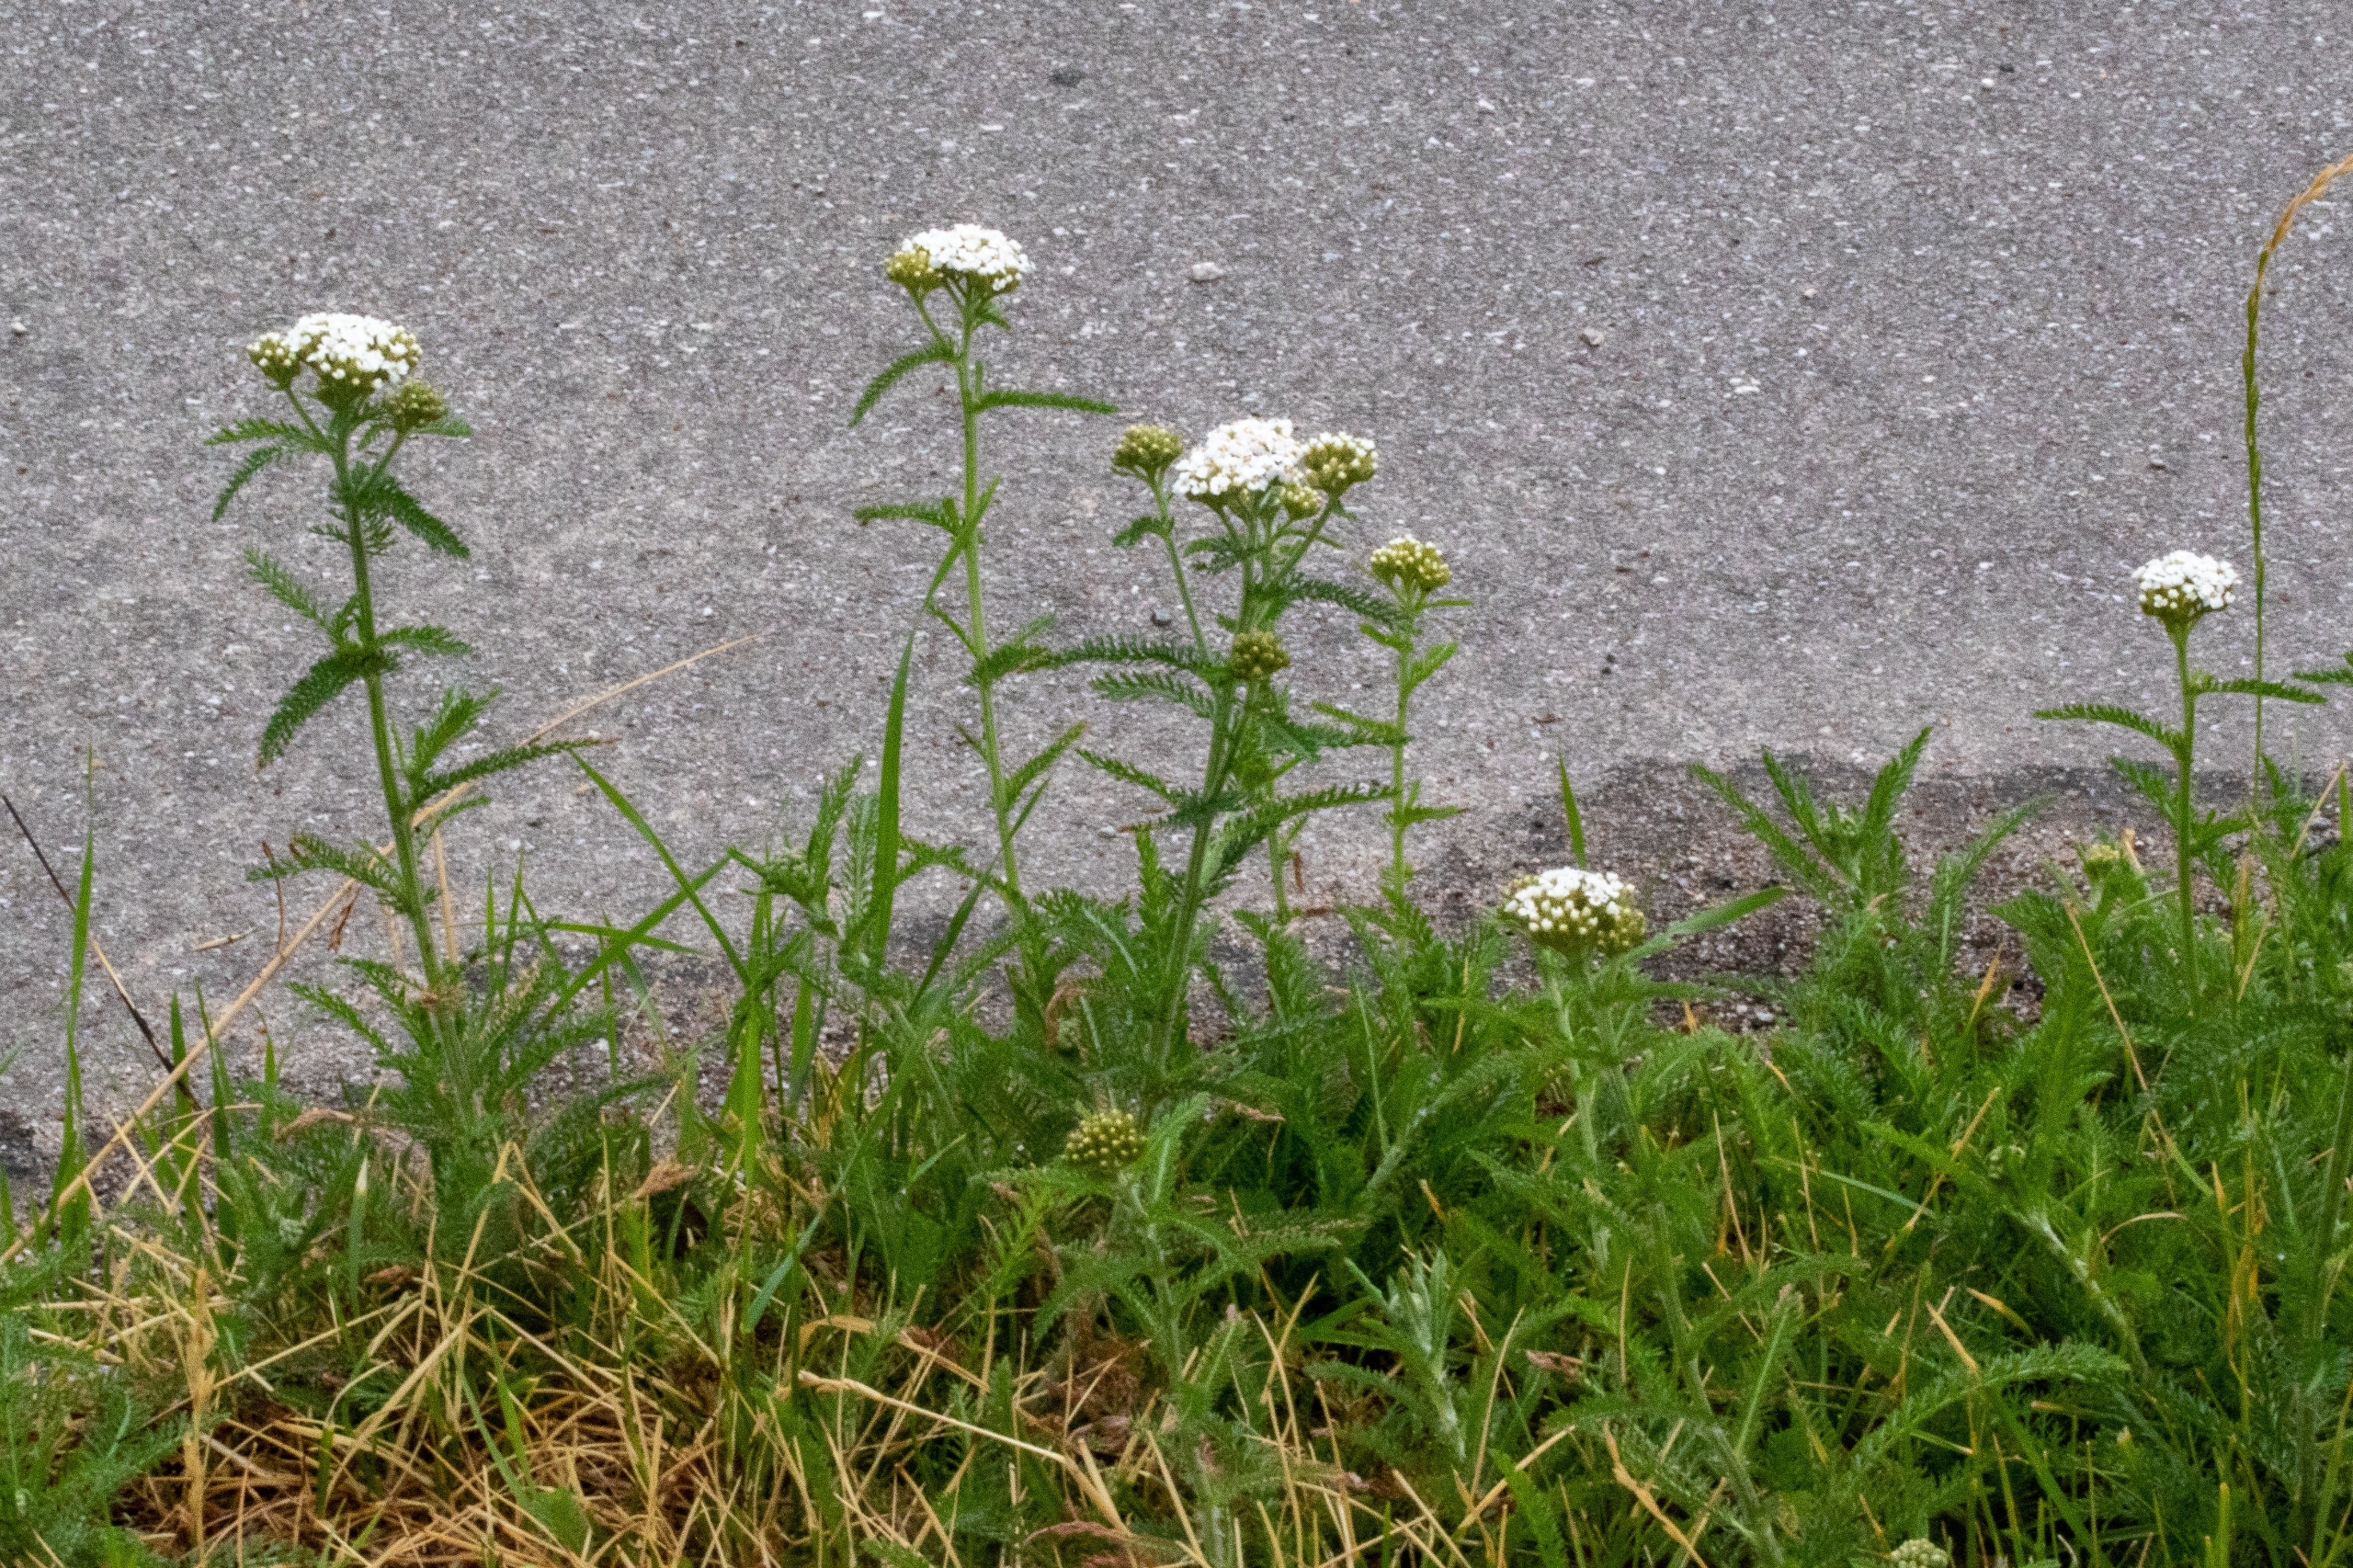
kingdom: Plantae
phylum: Tracheophyta
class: Magnoliopsida
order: Asterales
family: Asteraceae
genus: Achillea
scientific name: Achillea millefolium
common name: Almindelig røllike
